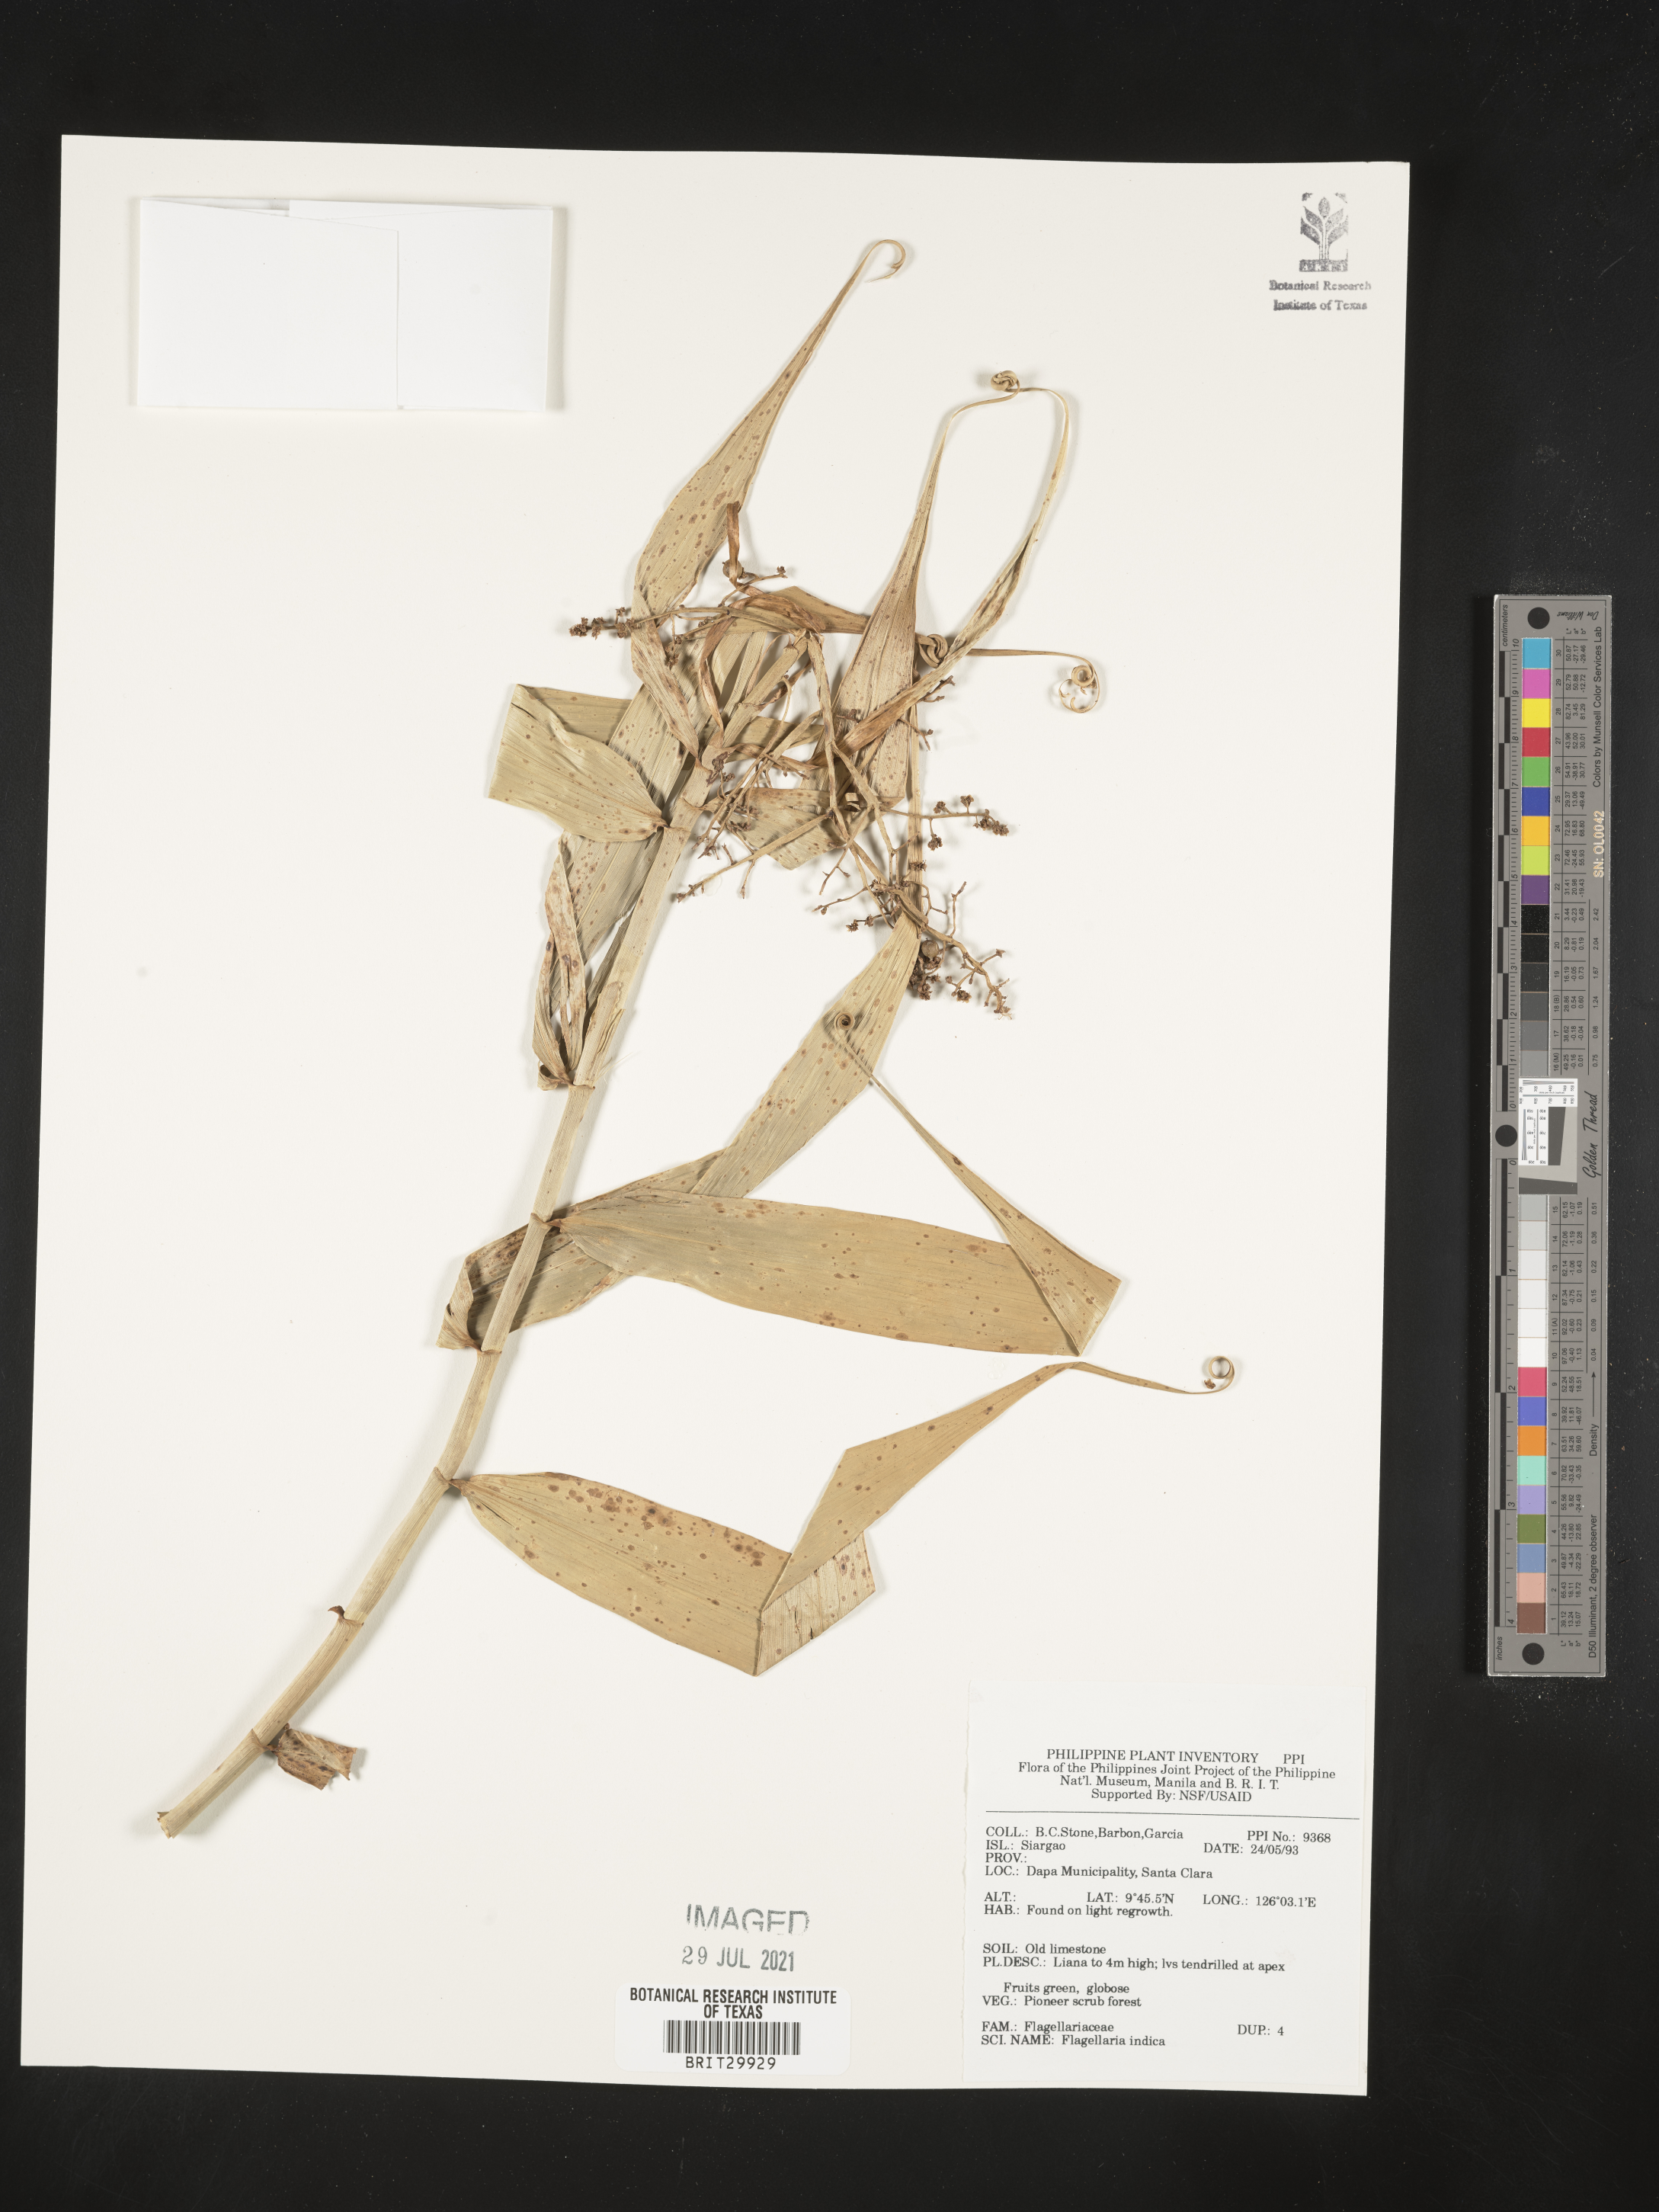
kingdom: Plantae
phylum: Tracheophyta
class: Liliopsida
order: Poales
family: Flagellariaceae
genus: Flagellaria
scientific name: Flagellaria indica
